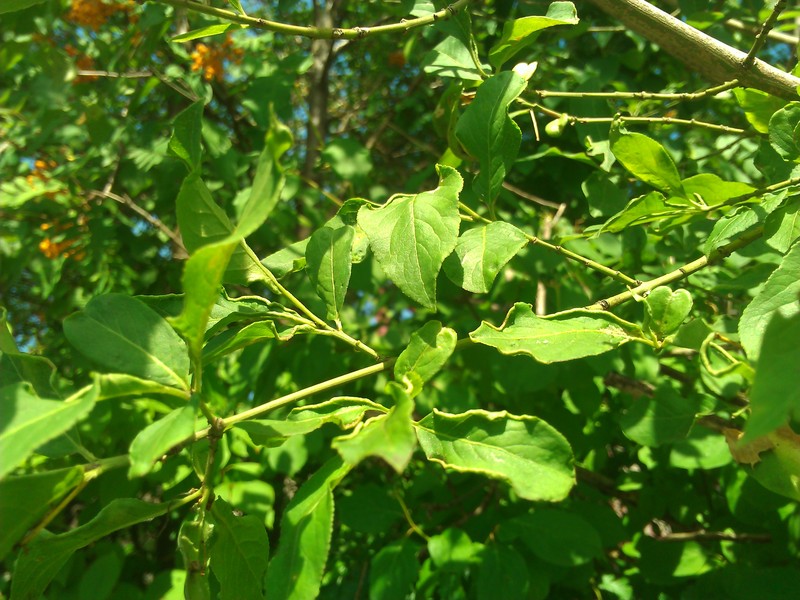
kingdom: Animalia
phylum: Arthropoda
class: Arachnida
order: Trombidiformes
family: Eriophyidae
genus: Stenacis
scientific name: Stenacis evonymi
